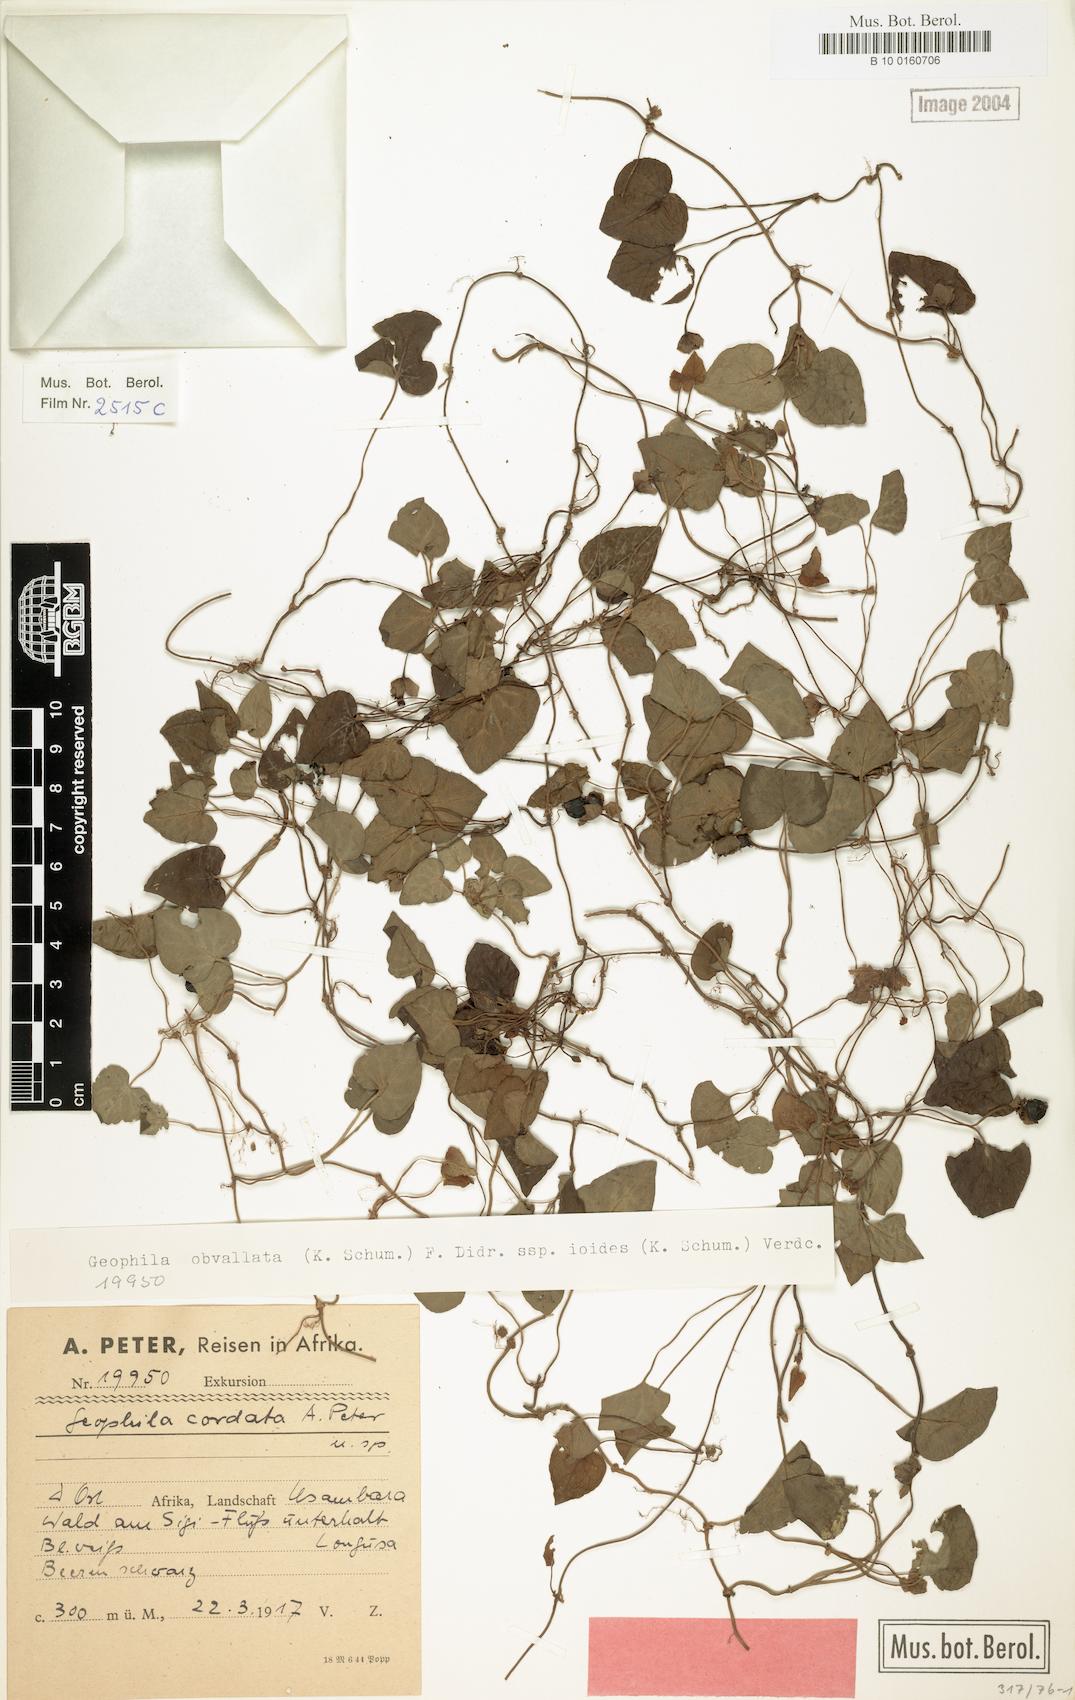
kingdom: Plantae
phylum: Tracheophyta
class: Magnoliopsida
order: Gentianales
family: Rubiaceae
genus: Geophila
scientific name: Geophila obvallata
